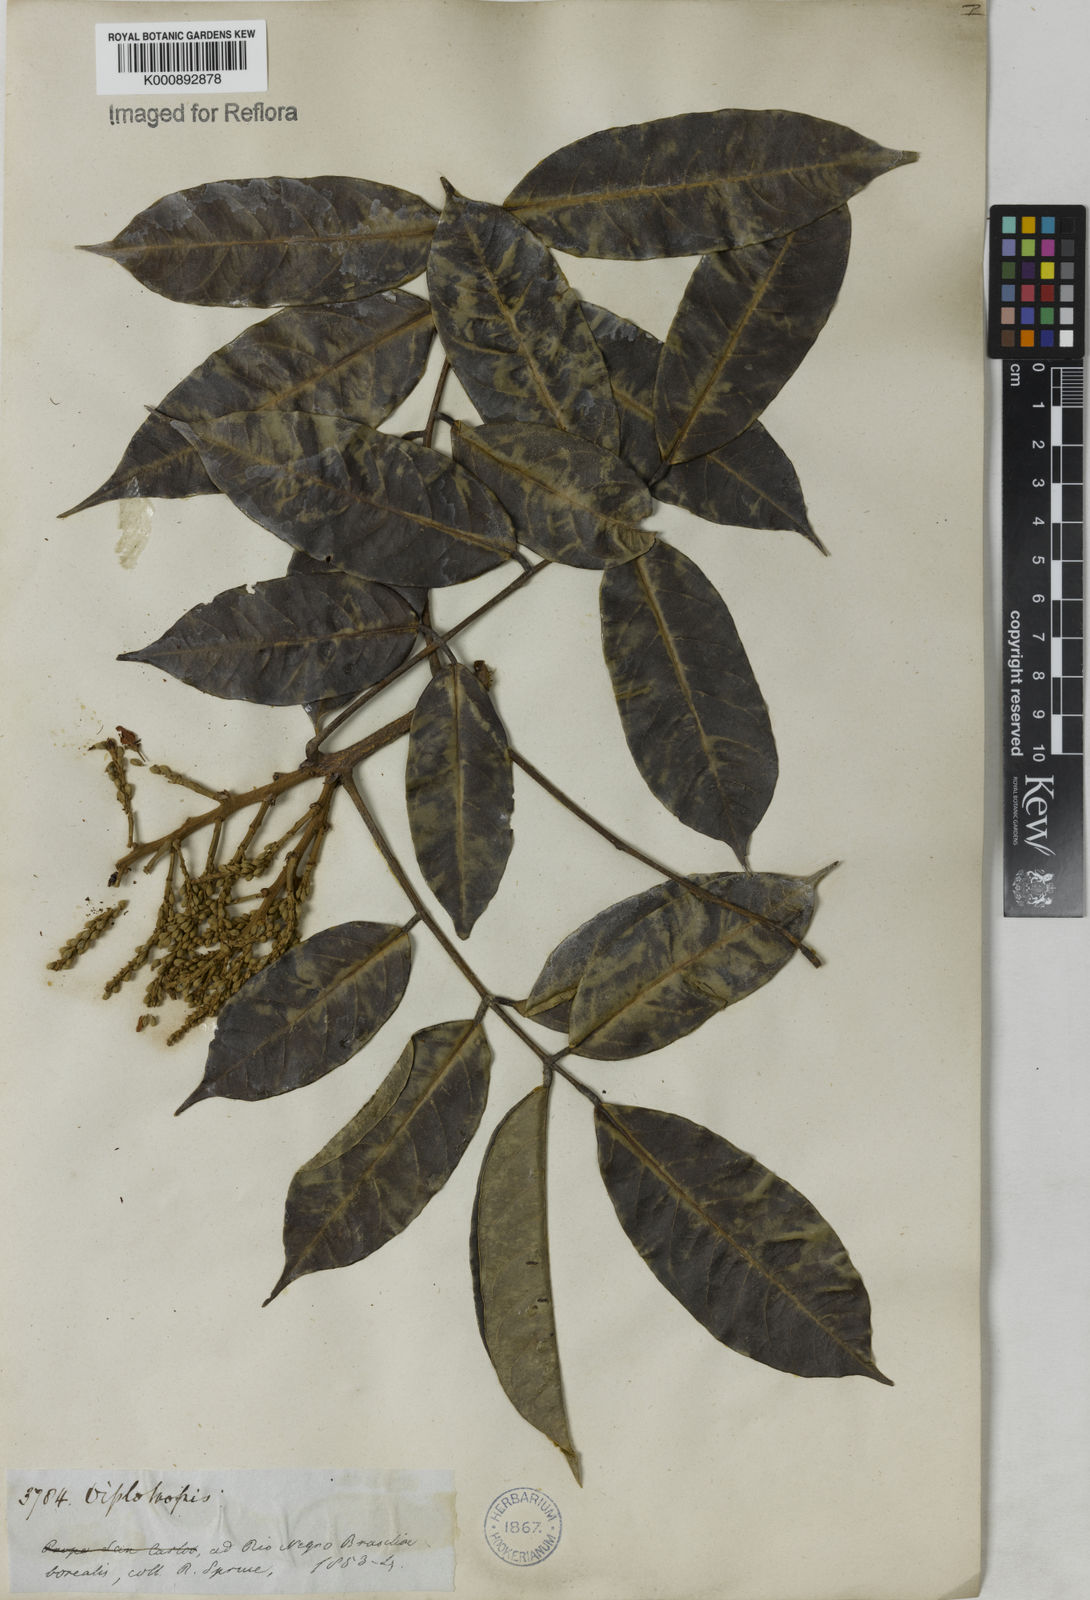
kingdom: Plantae
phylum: Tracheophyta
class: Magnoliopsida
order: Fabales
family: Fabaceae
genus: Clathrotropis
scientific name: Clathrotropis nitida
